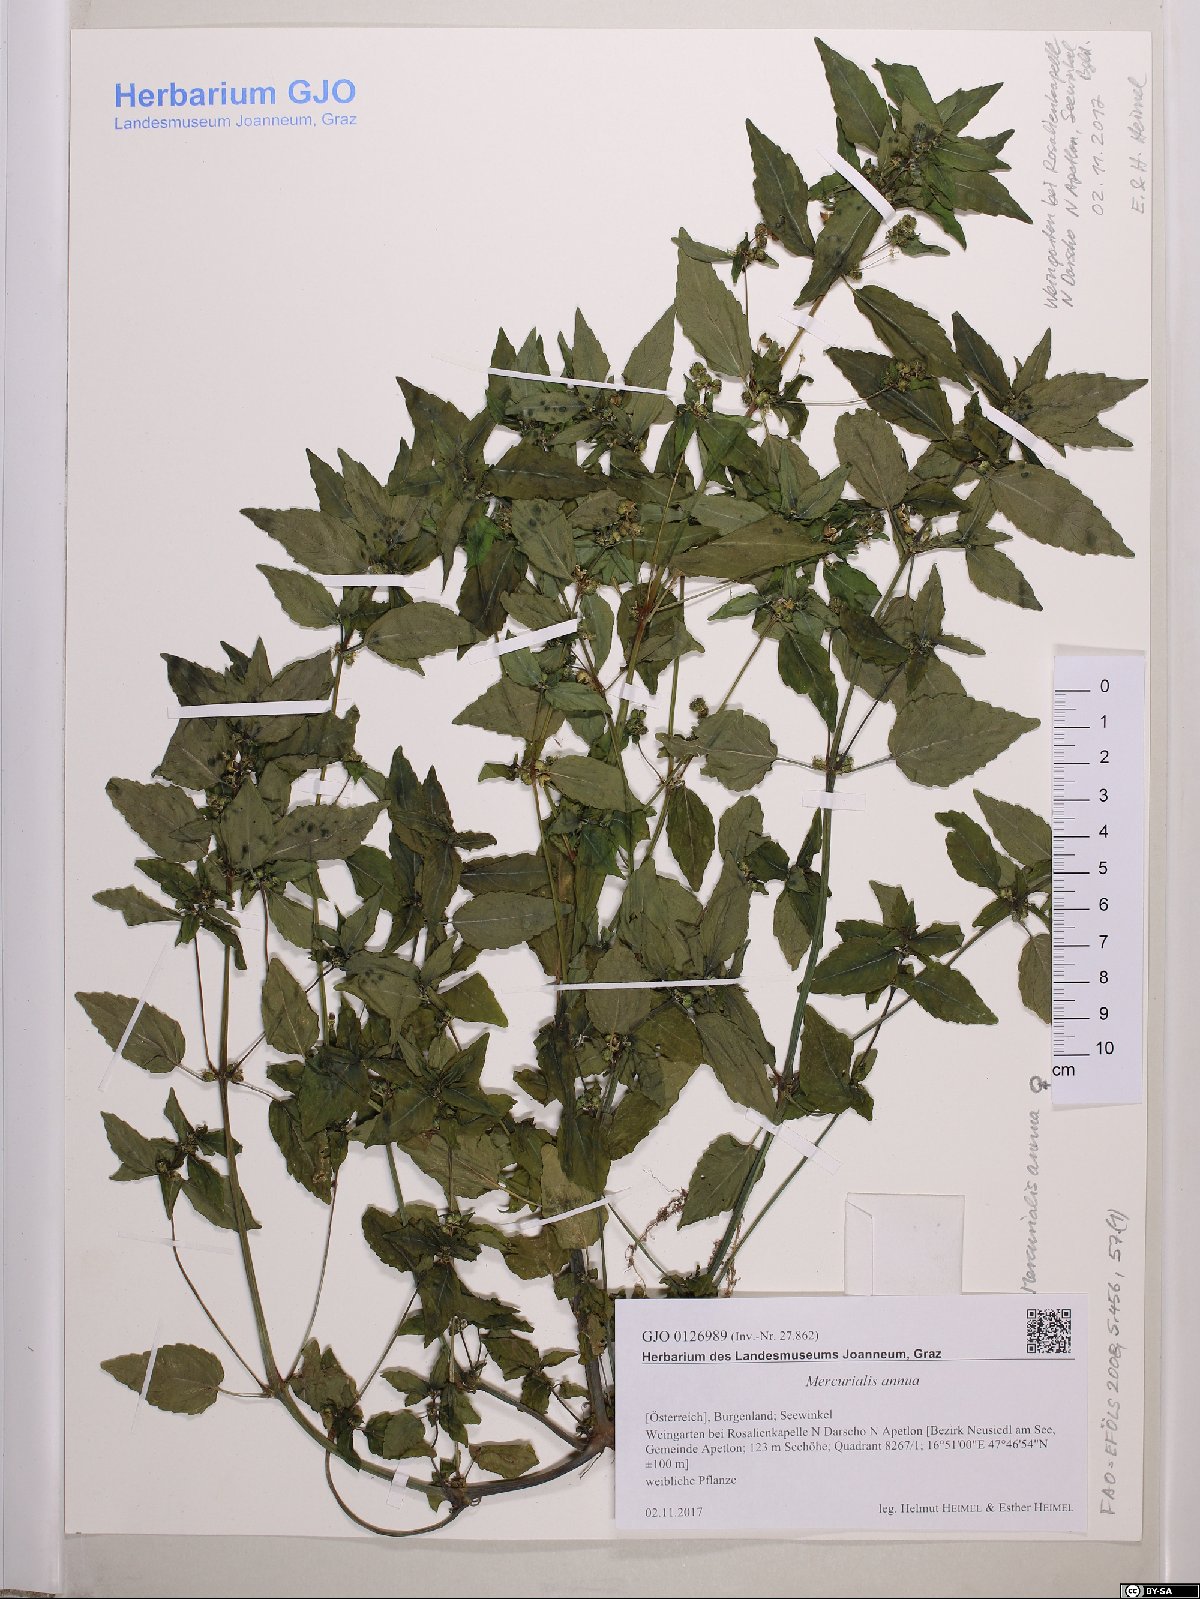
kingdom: Plantae
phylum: Tracheophyta
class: Magnoliopsida
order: Malpighiales
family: Euphorbiaceae
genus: Mercurialis
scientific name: Mercurialis annua
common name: Annual mercury
